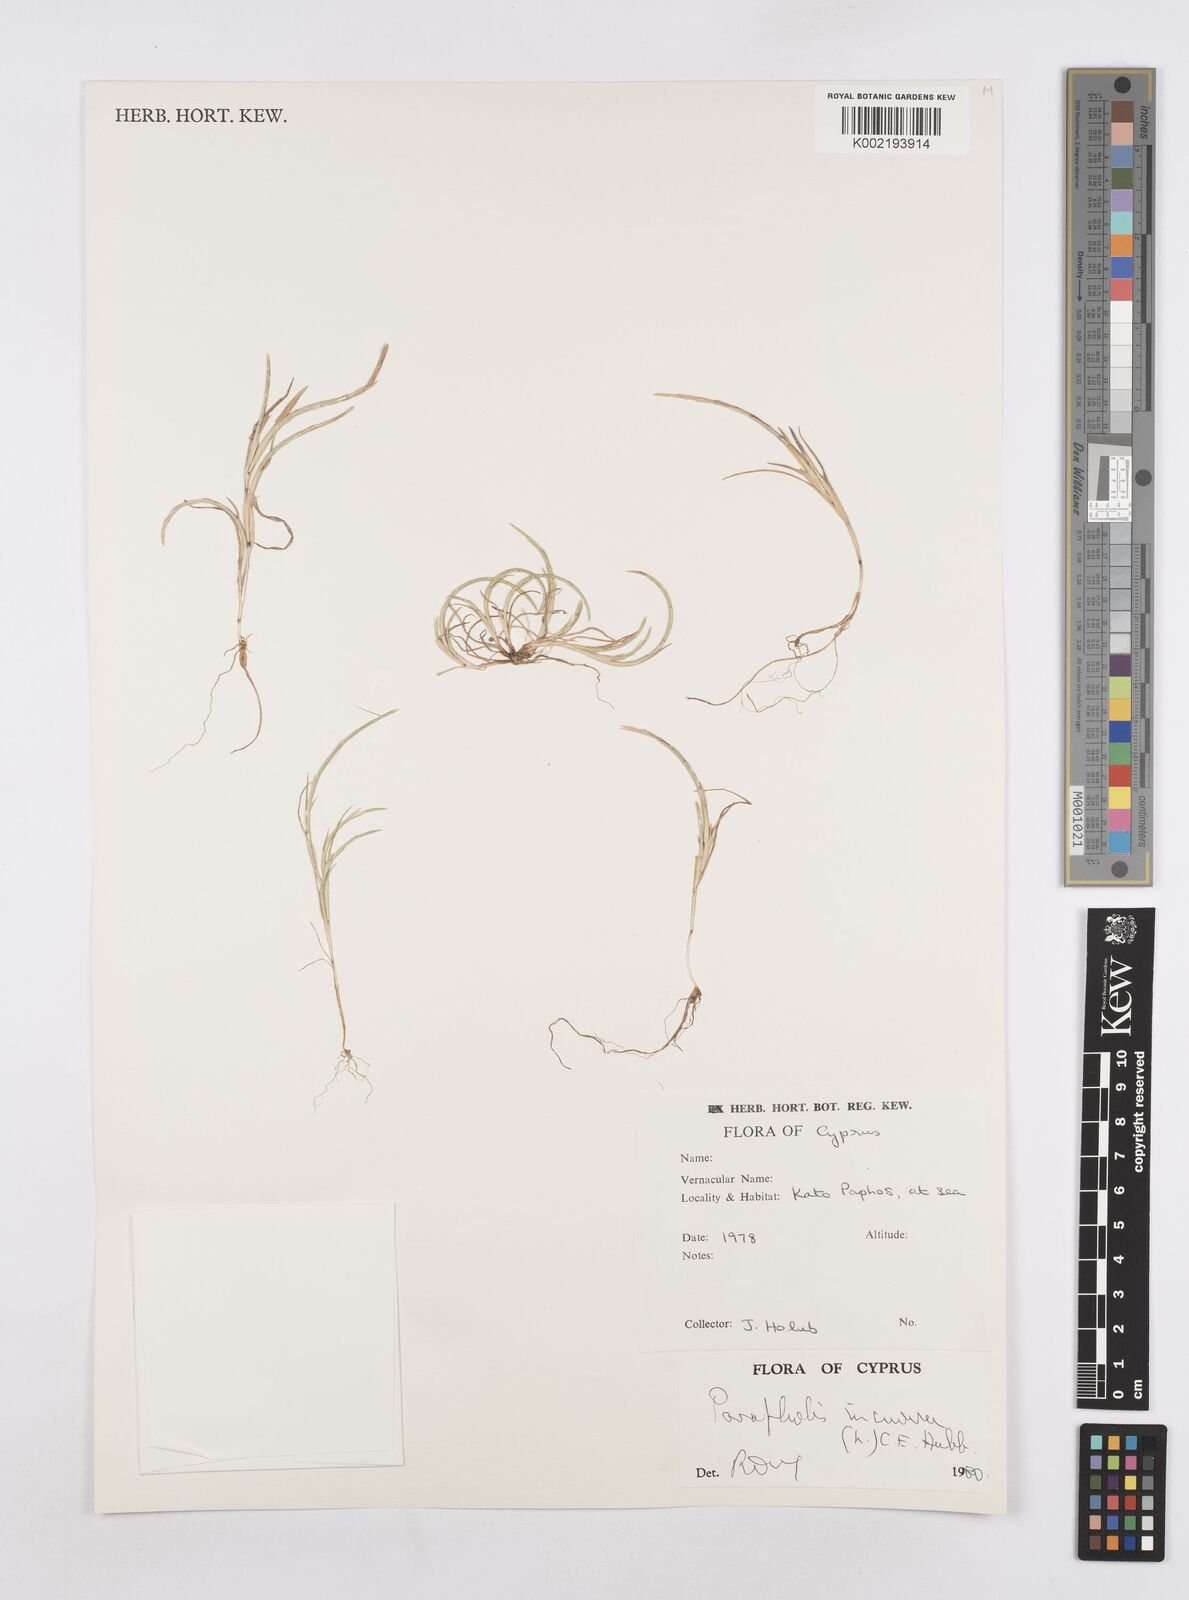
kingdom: Plantae
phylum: Tracheophyta
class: Liliopsida
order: Poales
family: Poaceae
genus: Parapholis
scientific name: Parapholis incurva
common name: Curved sicklegrass
